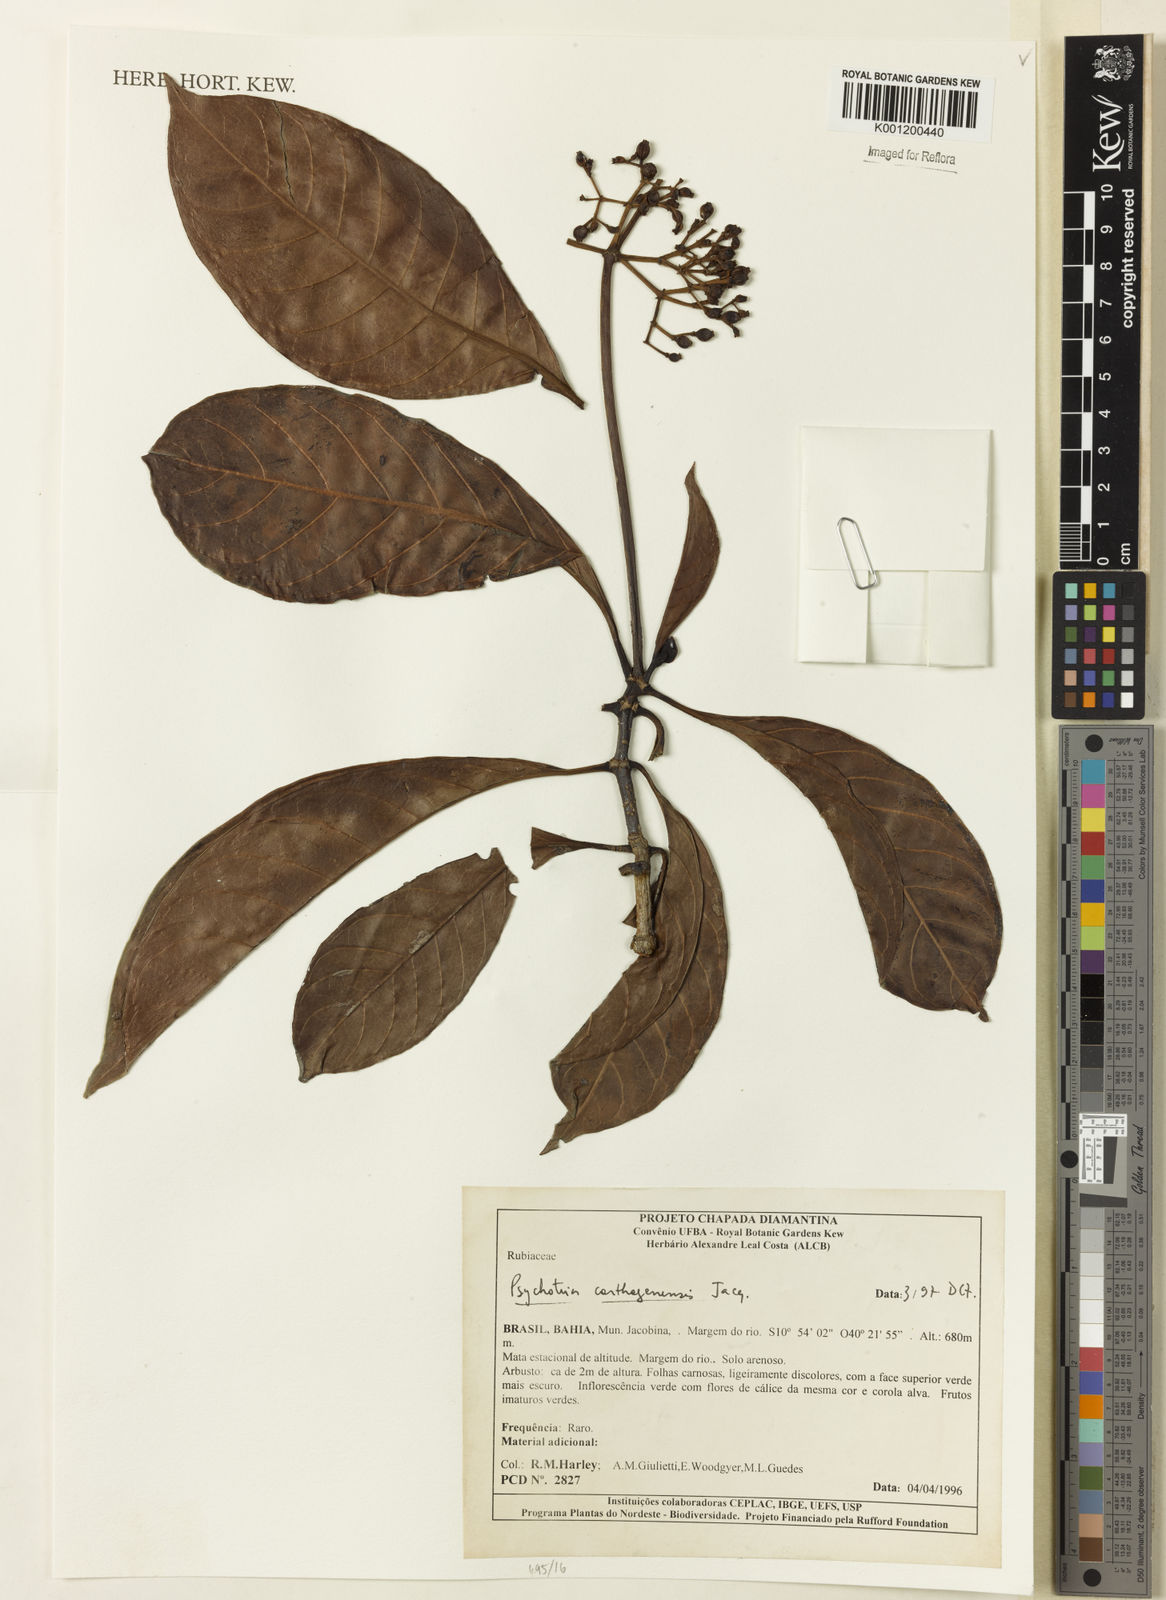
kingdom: Plantae
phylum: Tracheophyta
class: Magnoliopsida
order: Gentianales
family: Rubiaceae
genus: Psychotria
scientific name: Psychotria carthagenensis
